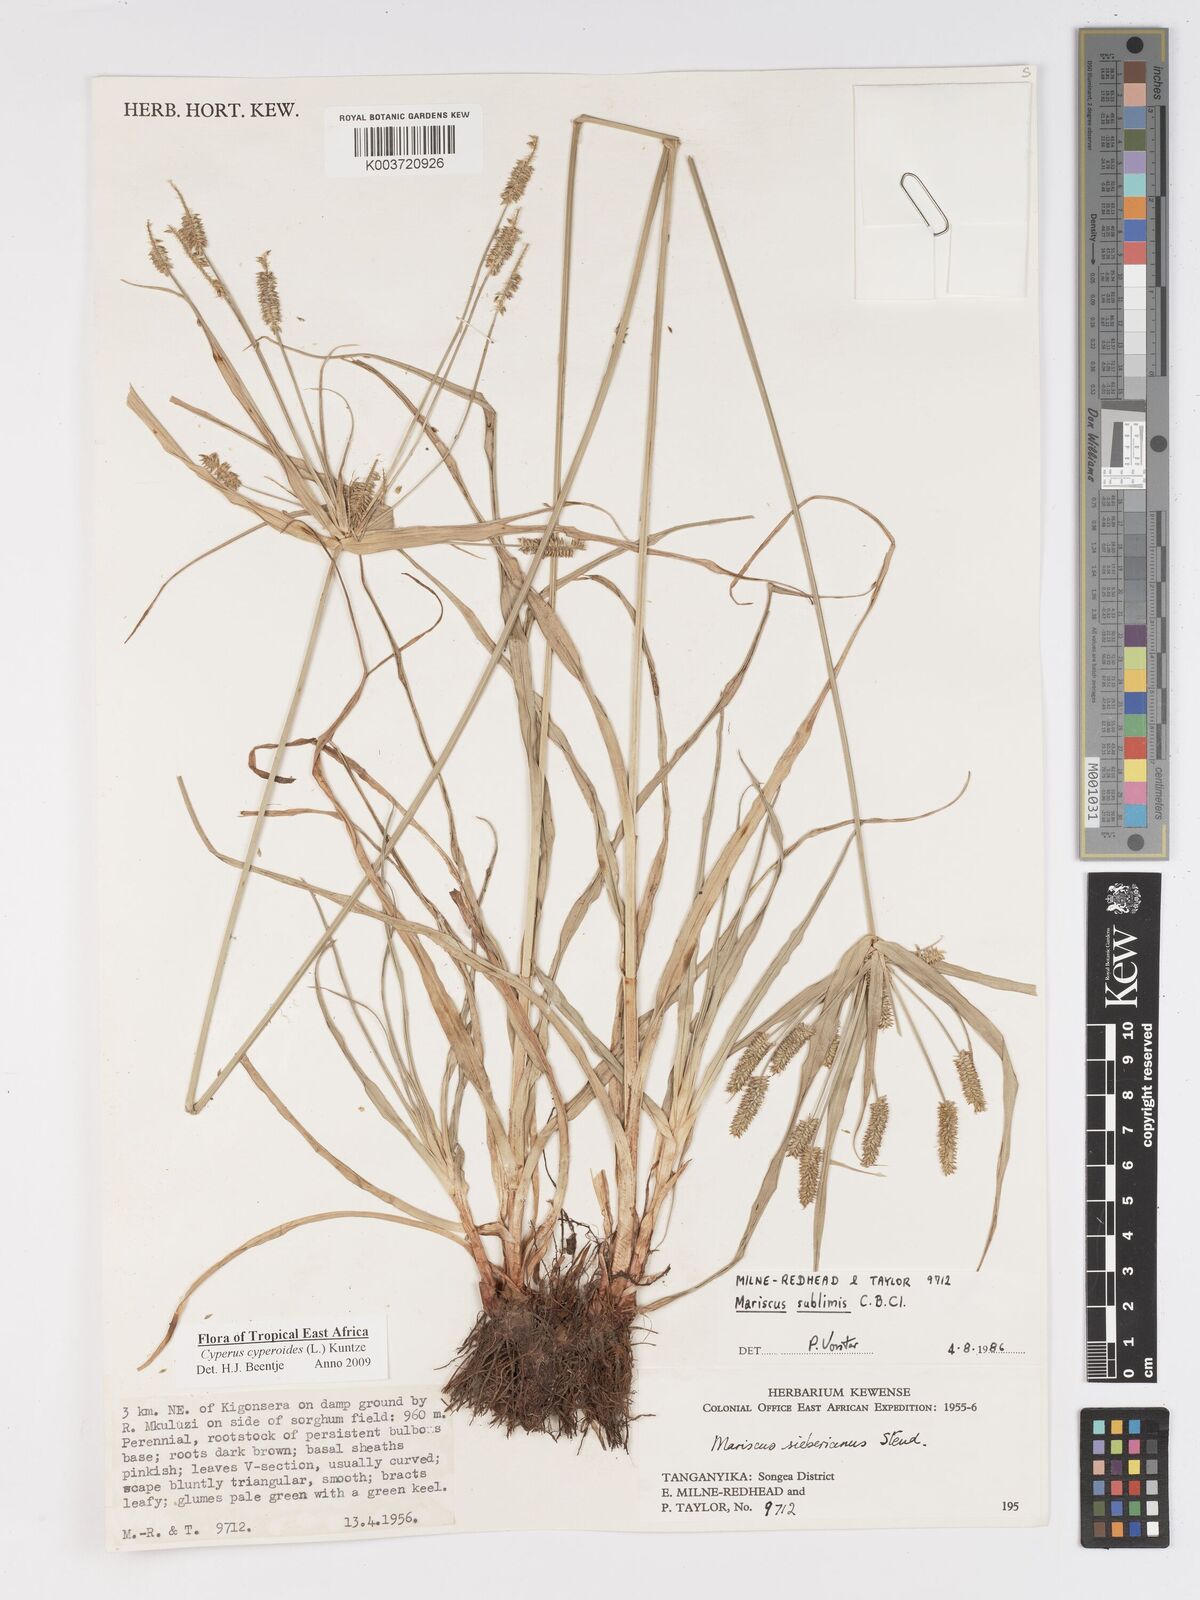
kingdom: Plantae
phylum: Tracheophyta
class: Liliopsida
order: Poales
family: Cyperaceae
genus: Cyperus
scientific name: Cyperus cyperoides
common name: Pacific island flat sedge
